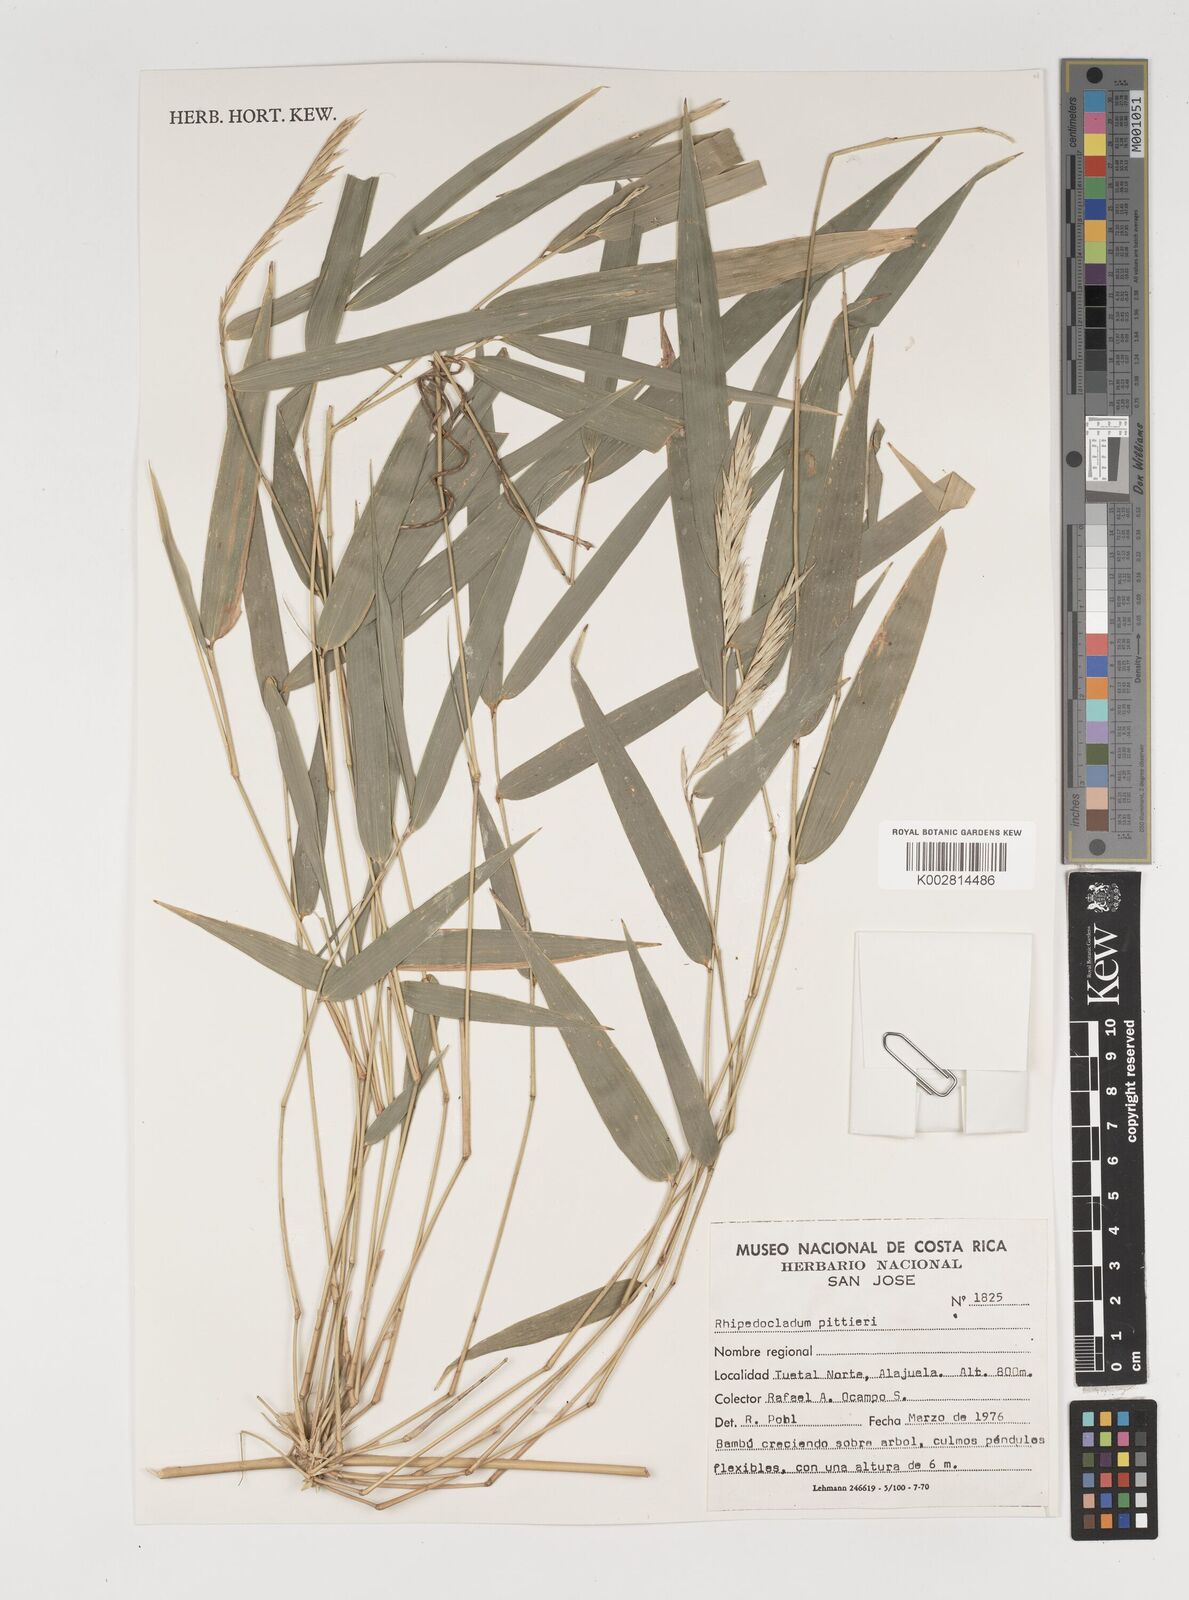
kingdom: Plantae
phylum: Tracheophyta
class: Liliopsida
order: Poales
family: Poaceae
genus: Rhipidocladum
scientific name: Rhipidocladum pittieri
